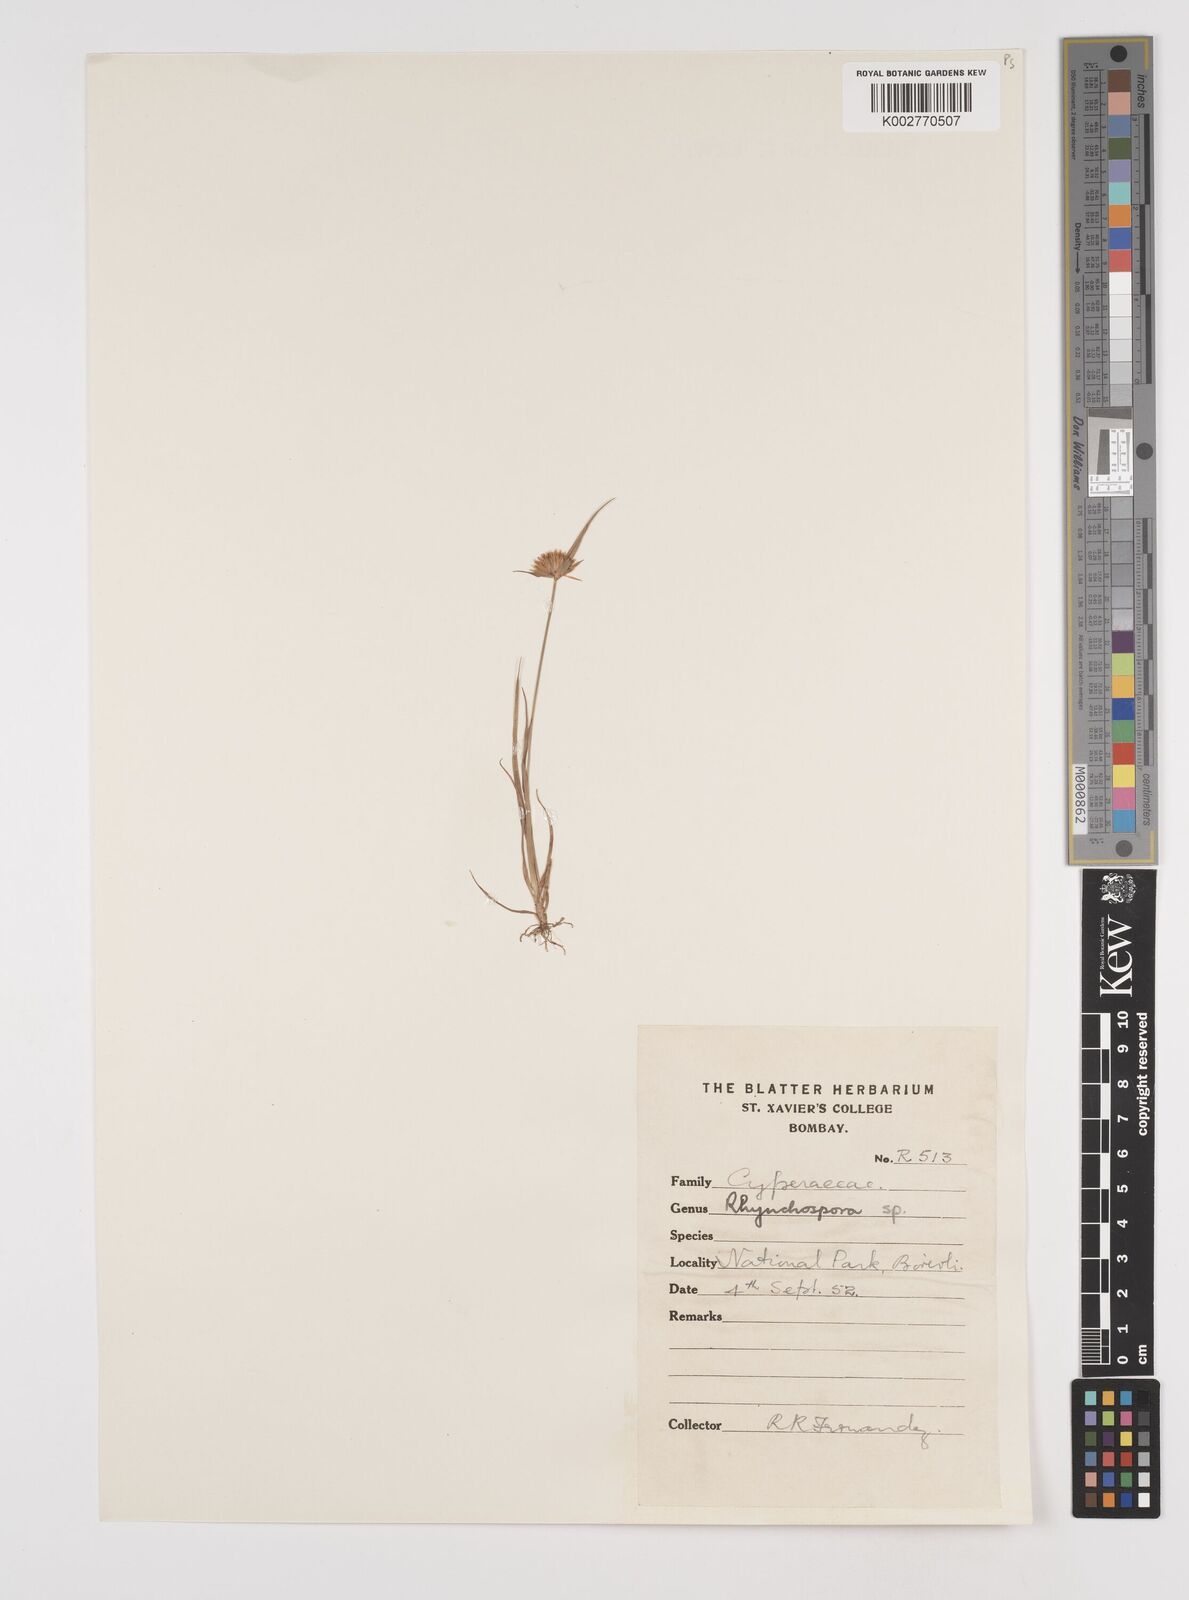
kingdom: Plantae
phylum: Tracheophyta
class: Liliopsida
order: Poales
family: Cyperaceae
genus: Rhynchospora
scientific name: Rhynchospora rubra
